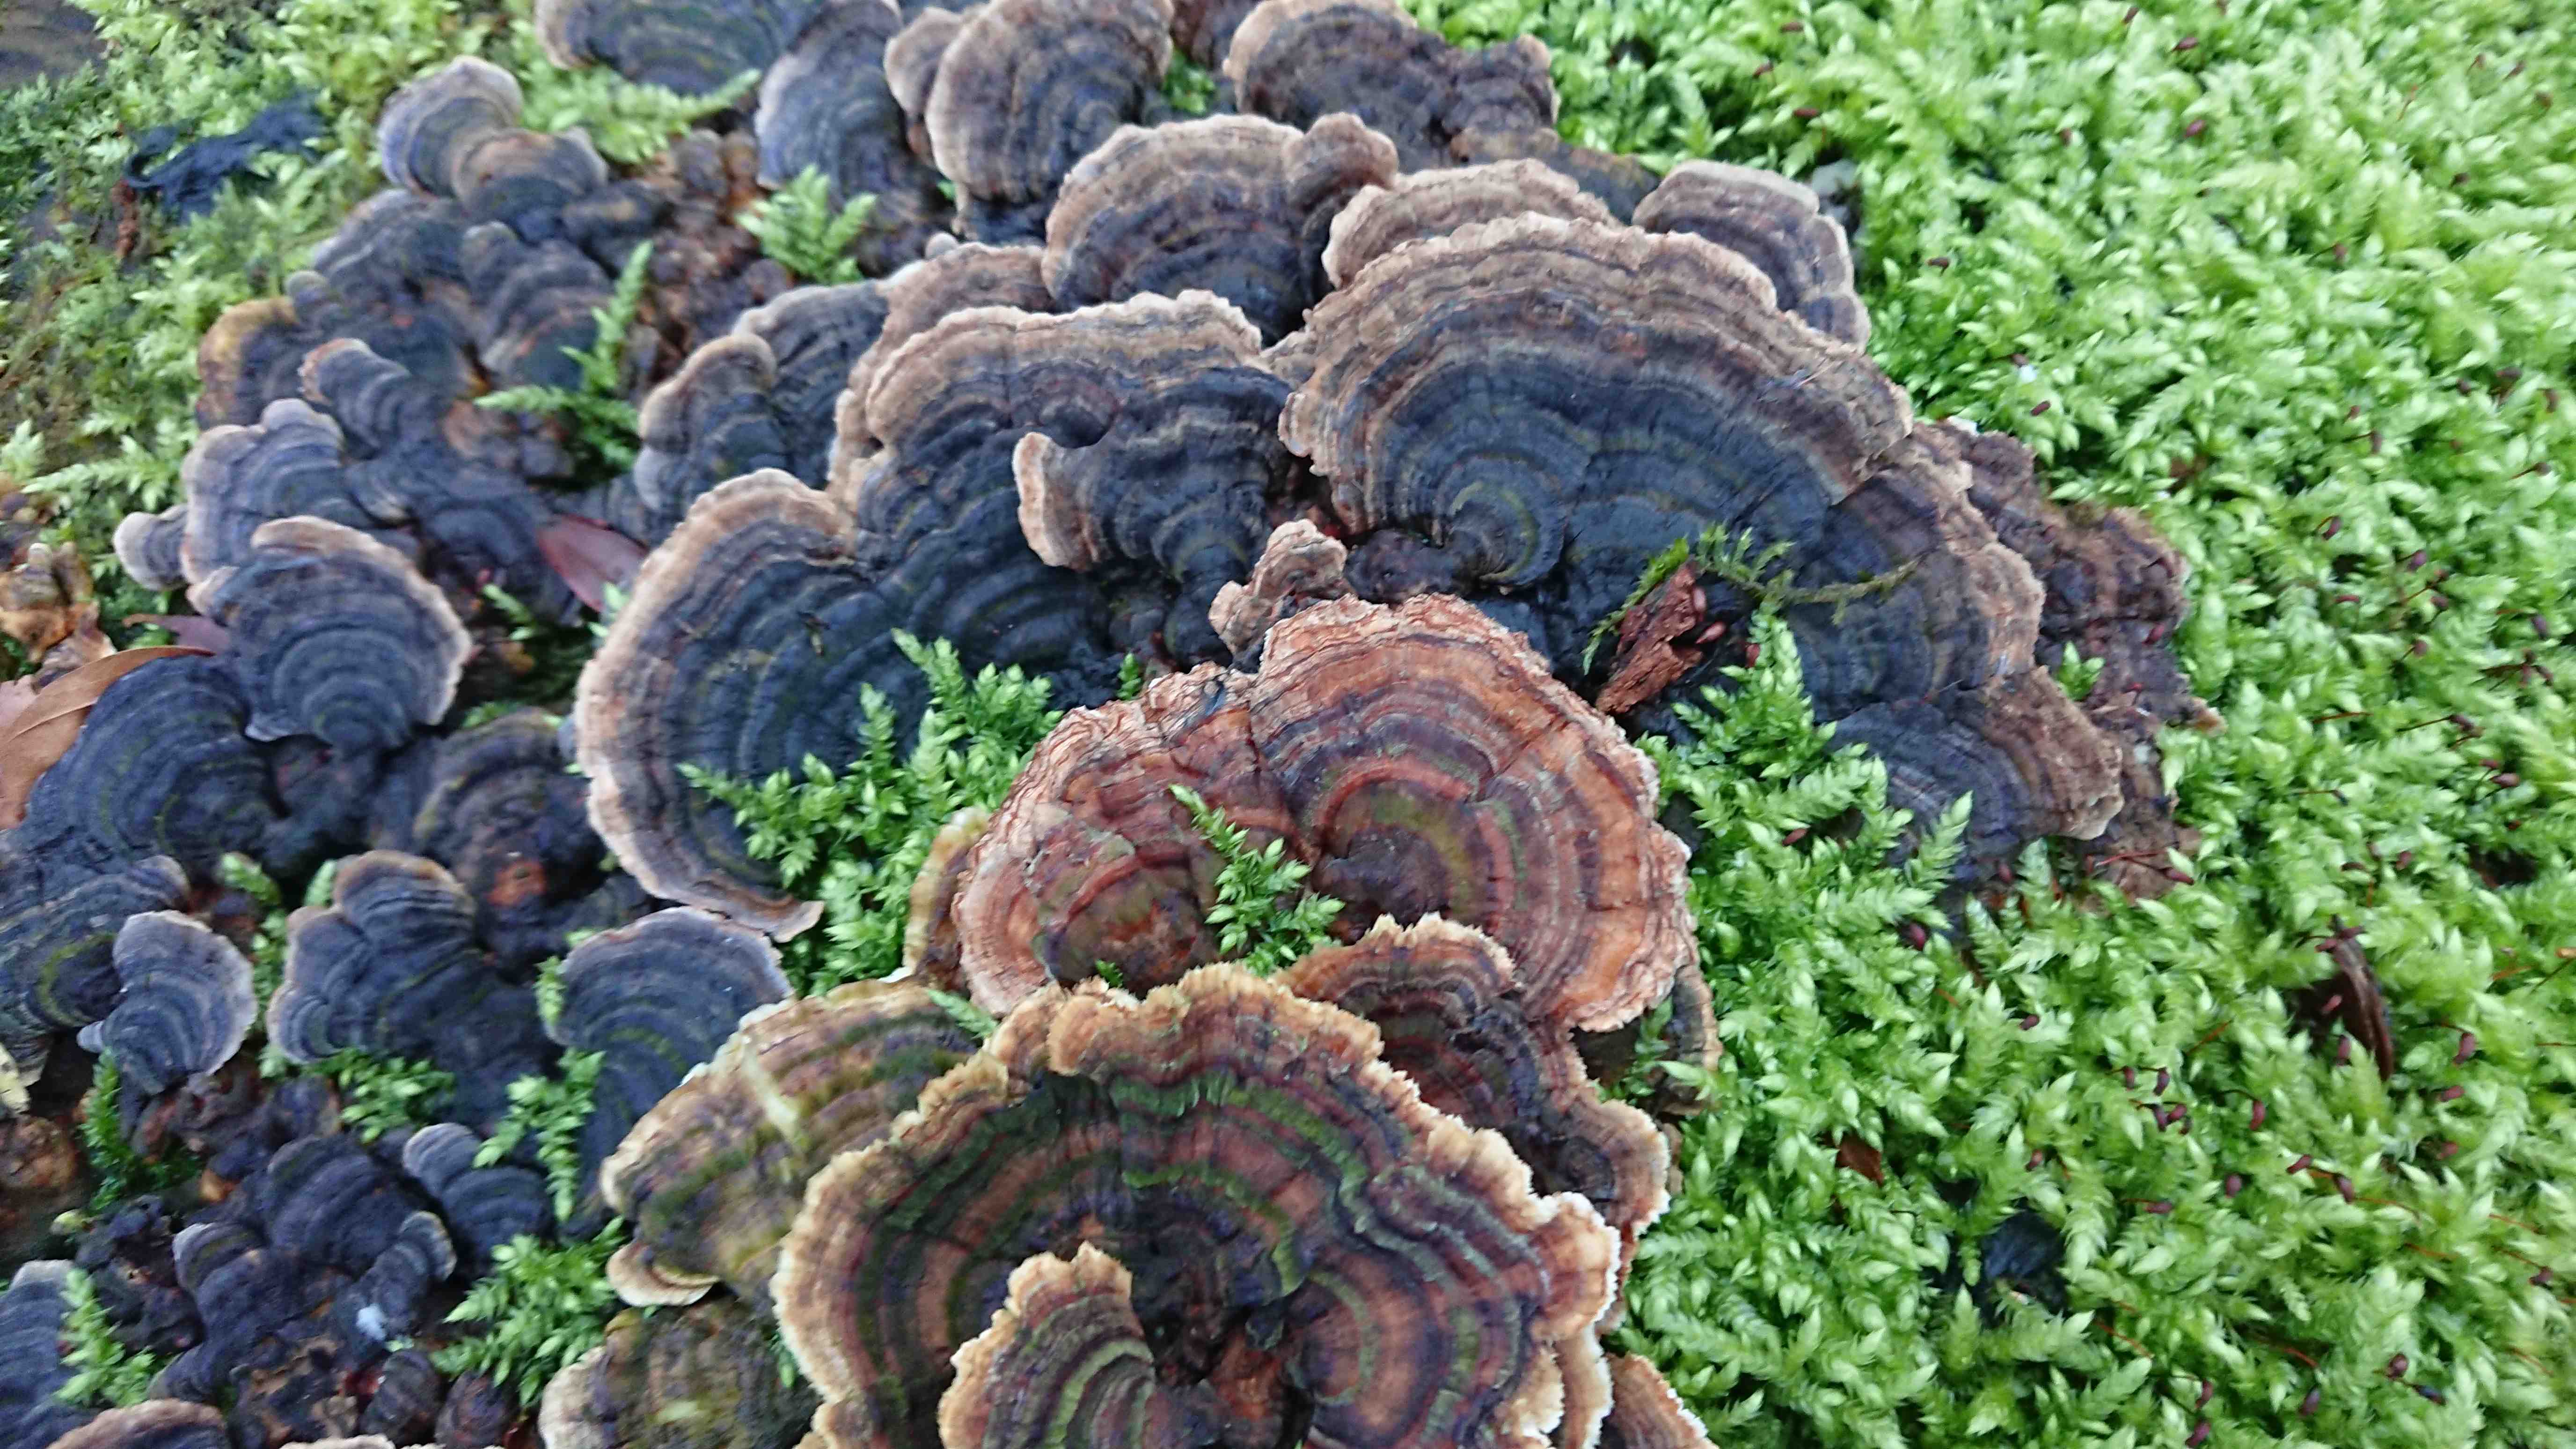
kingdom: Fungi
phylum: Basidiomycota
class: Agaricomycetes
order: Polyporales
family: Polyporaceae
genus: Trametes
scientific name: Trametes versicolor
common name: broget læderporesvamp
